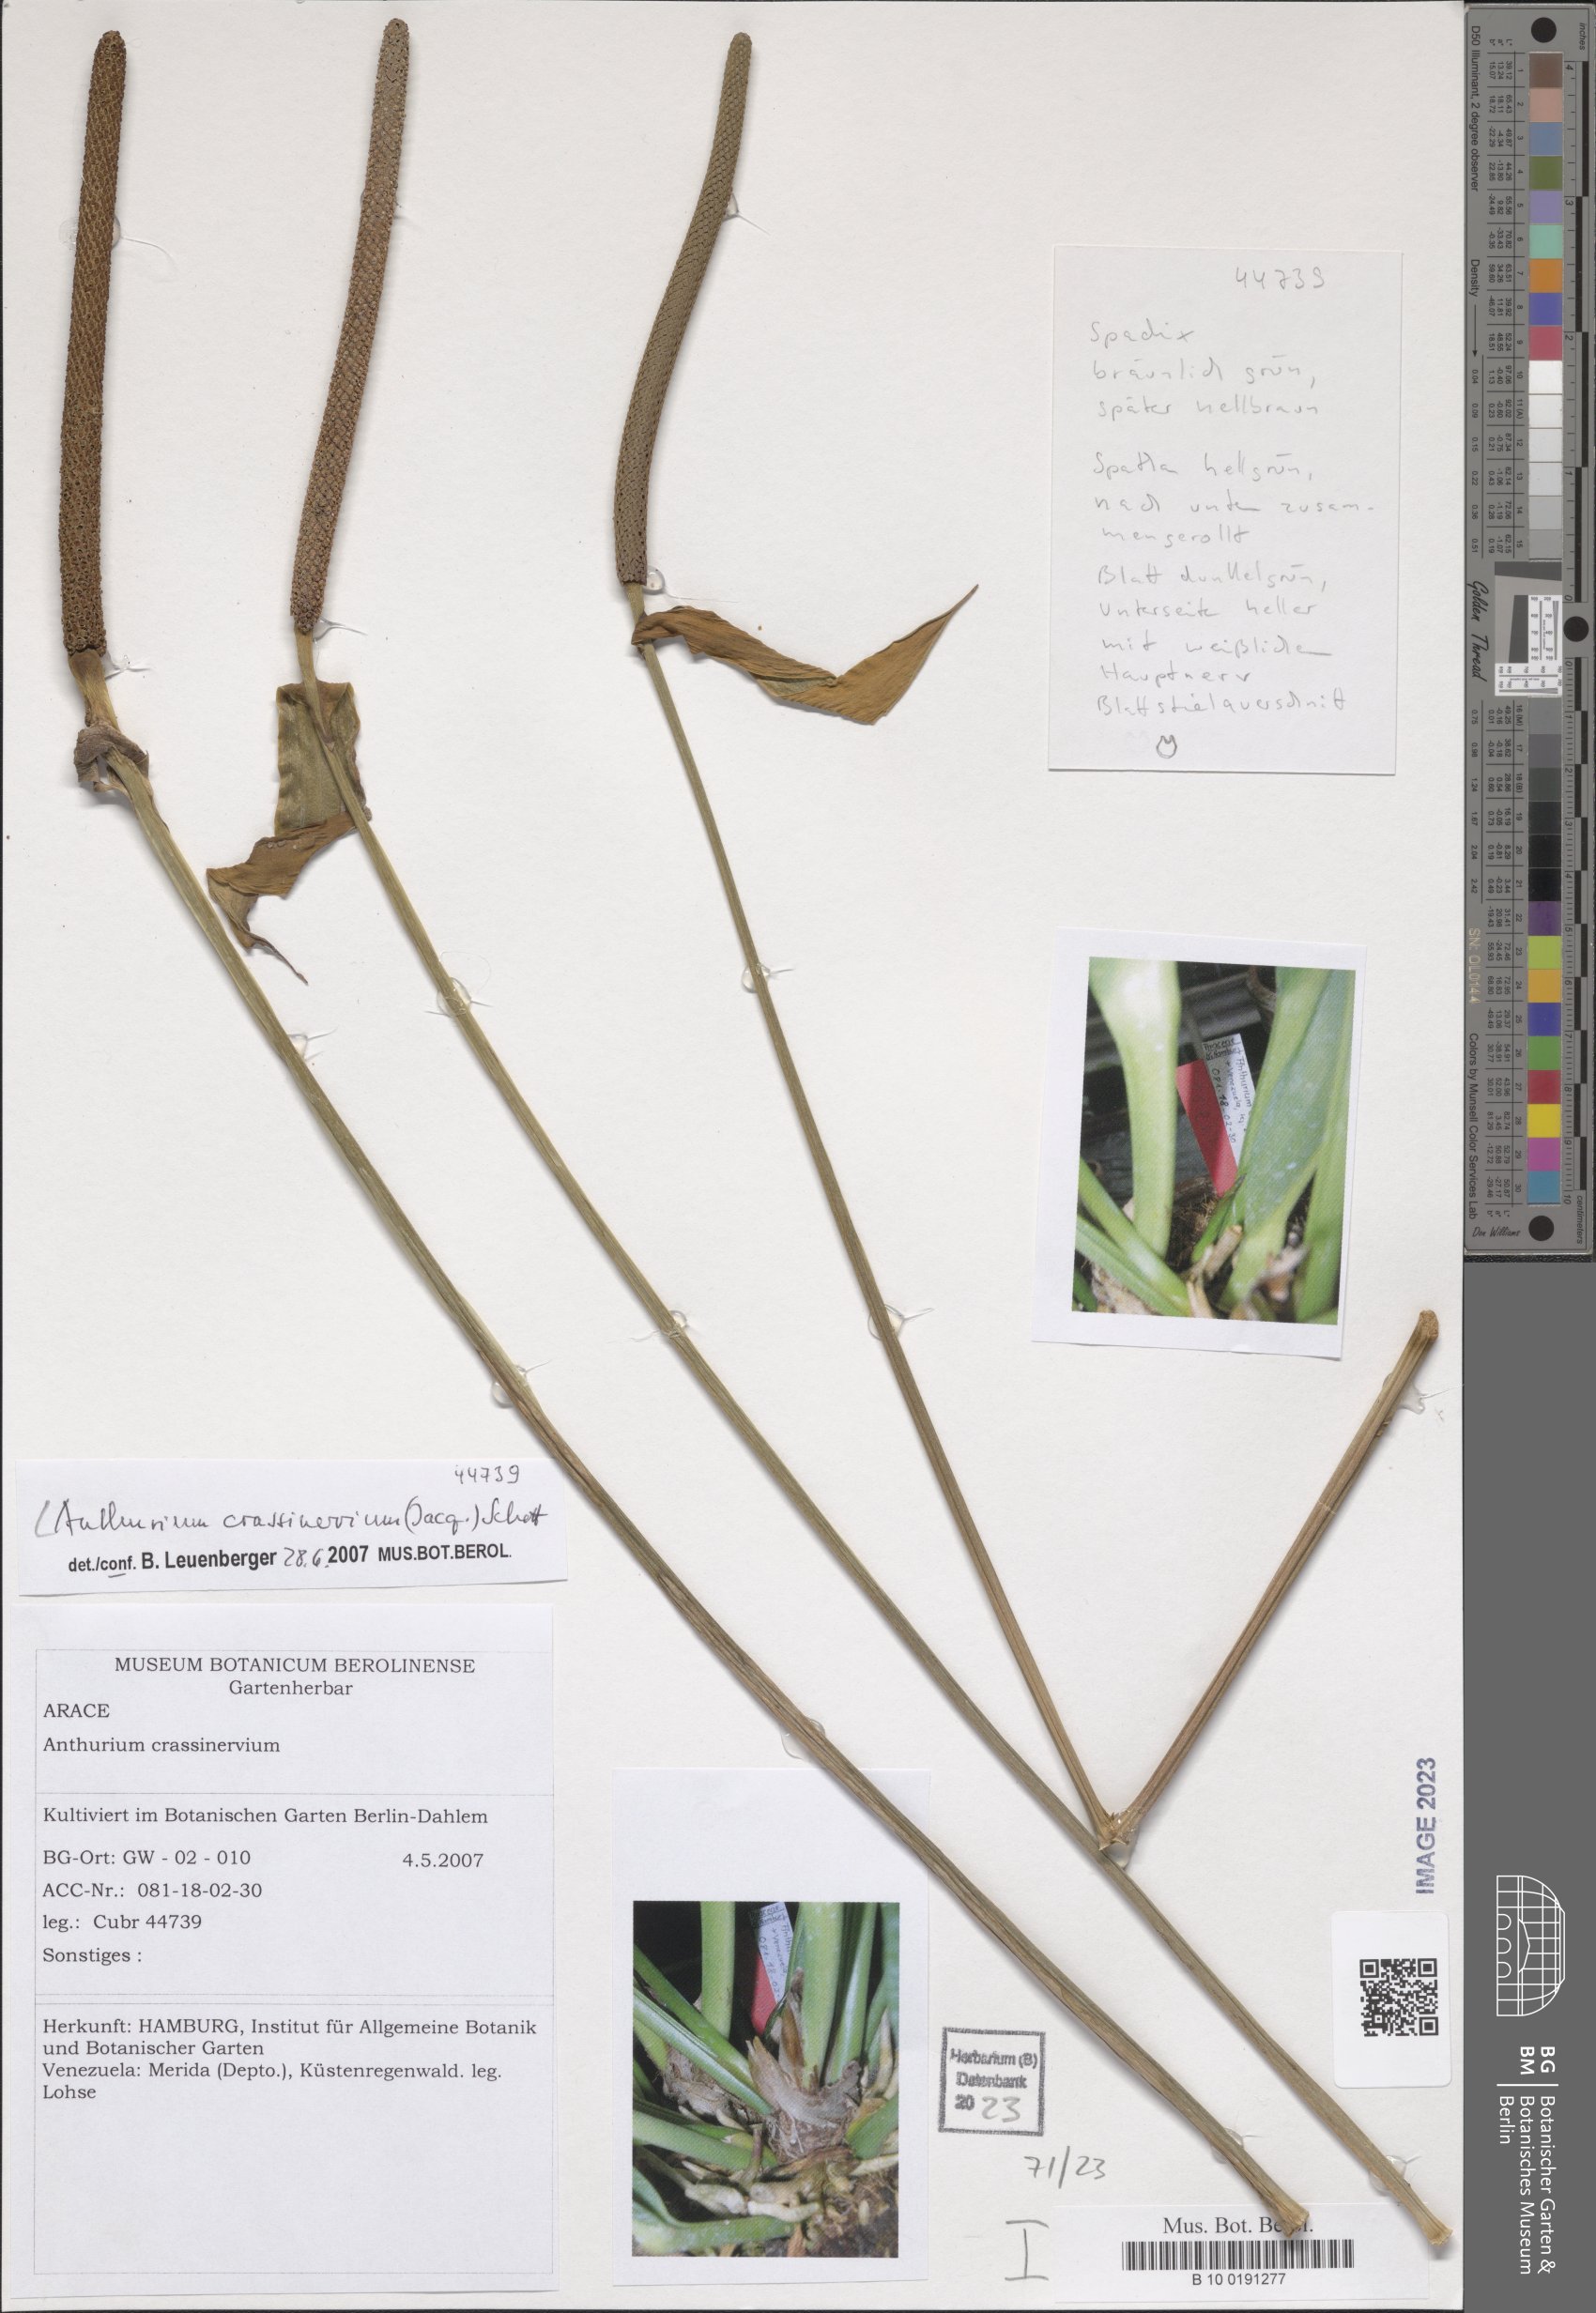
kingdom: Plantae
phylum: Tracheophyta
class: Liliopsida
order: Alismatales
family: Araceae
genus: Anthurium
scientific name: Anthurium crassinervium
